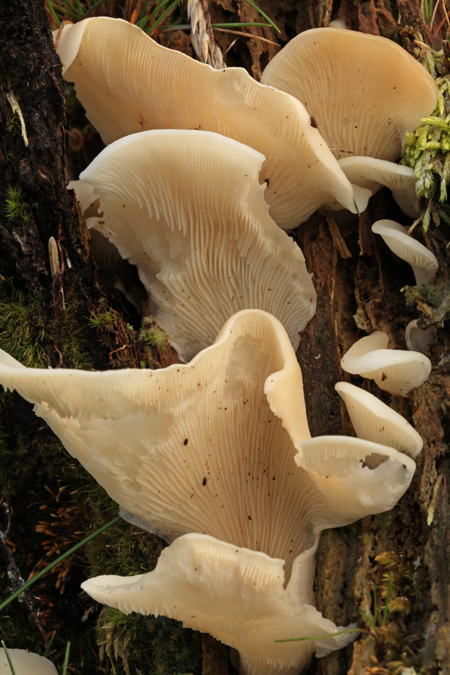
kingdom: Fungi
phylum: Basidiomycota
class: Agaricomycetes
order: Agaricales
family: Marasmiaceae
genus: Pleurocybella
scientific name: Pleurocybella porrigens
